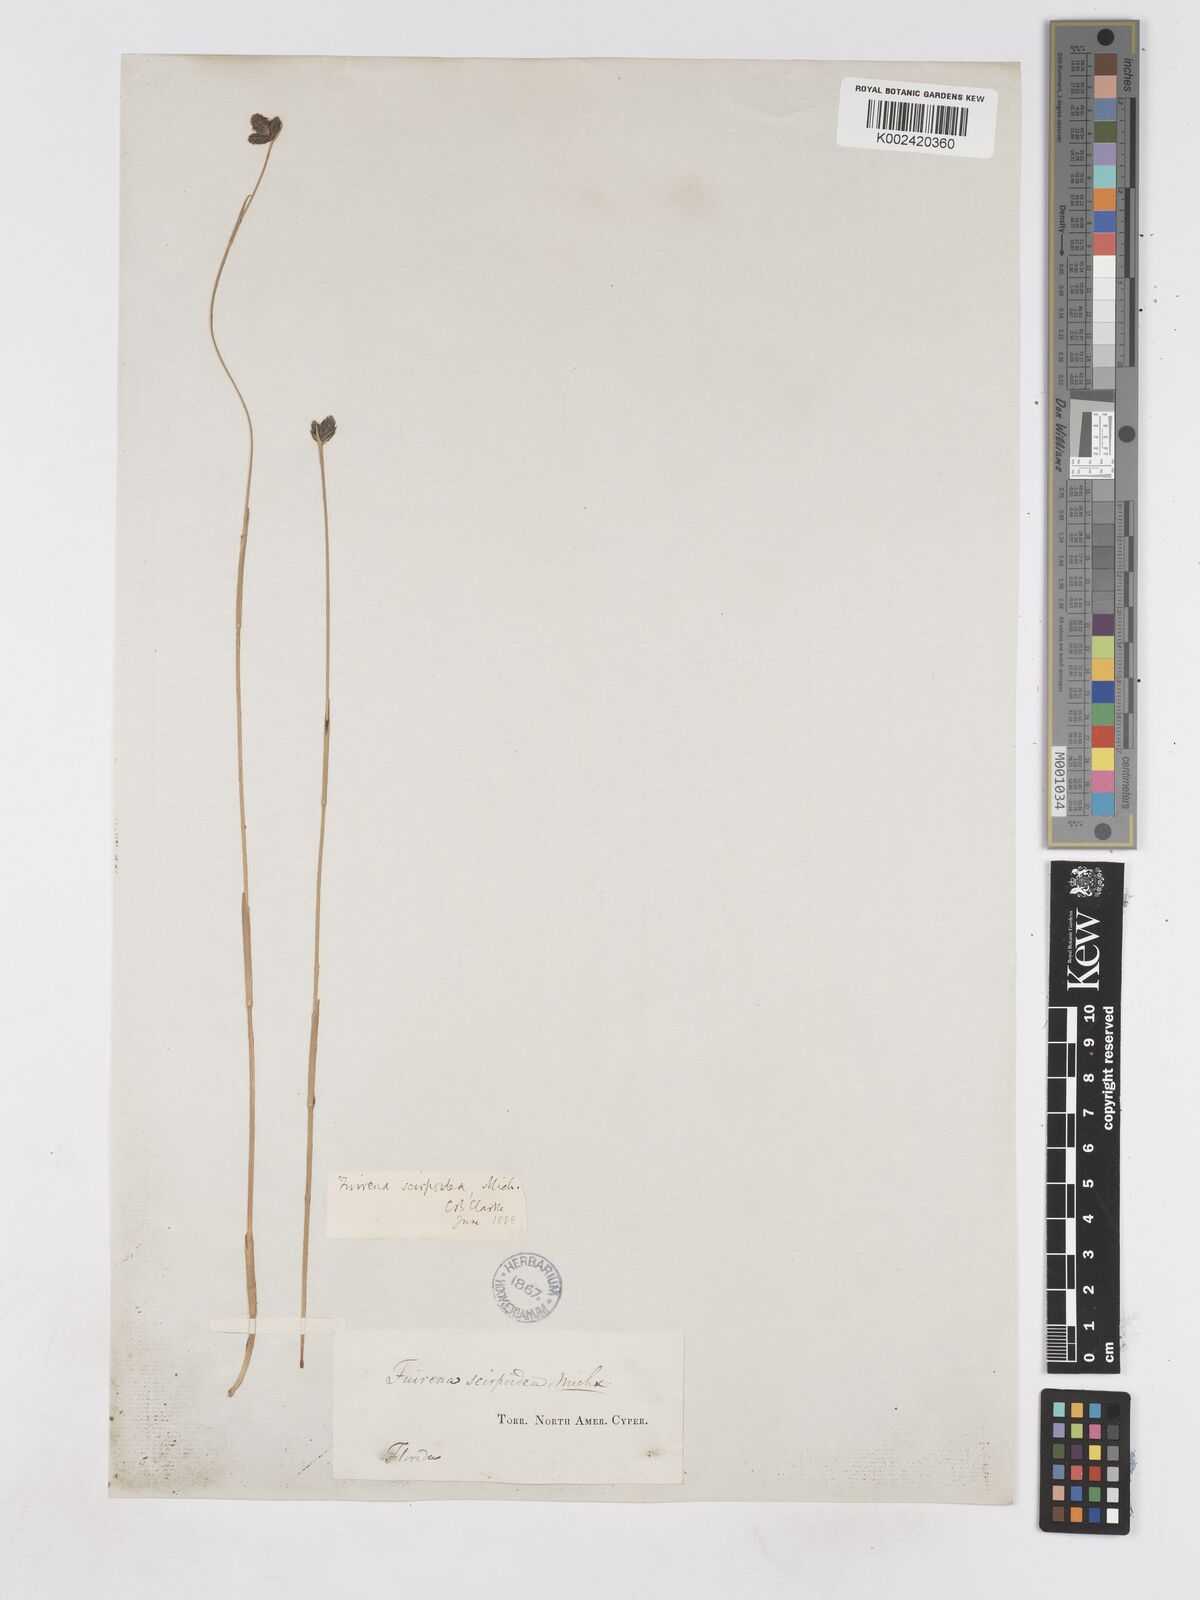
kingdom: Plantae
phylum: Tracheophyta
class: Liliopsida
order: Poales
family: Cyperaceae
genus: Fuirena
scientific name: Fuirena scirpoidea
